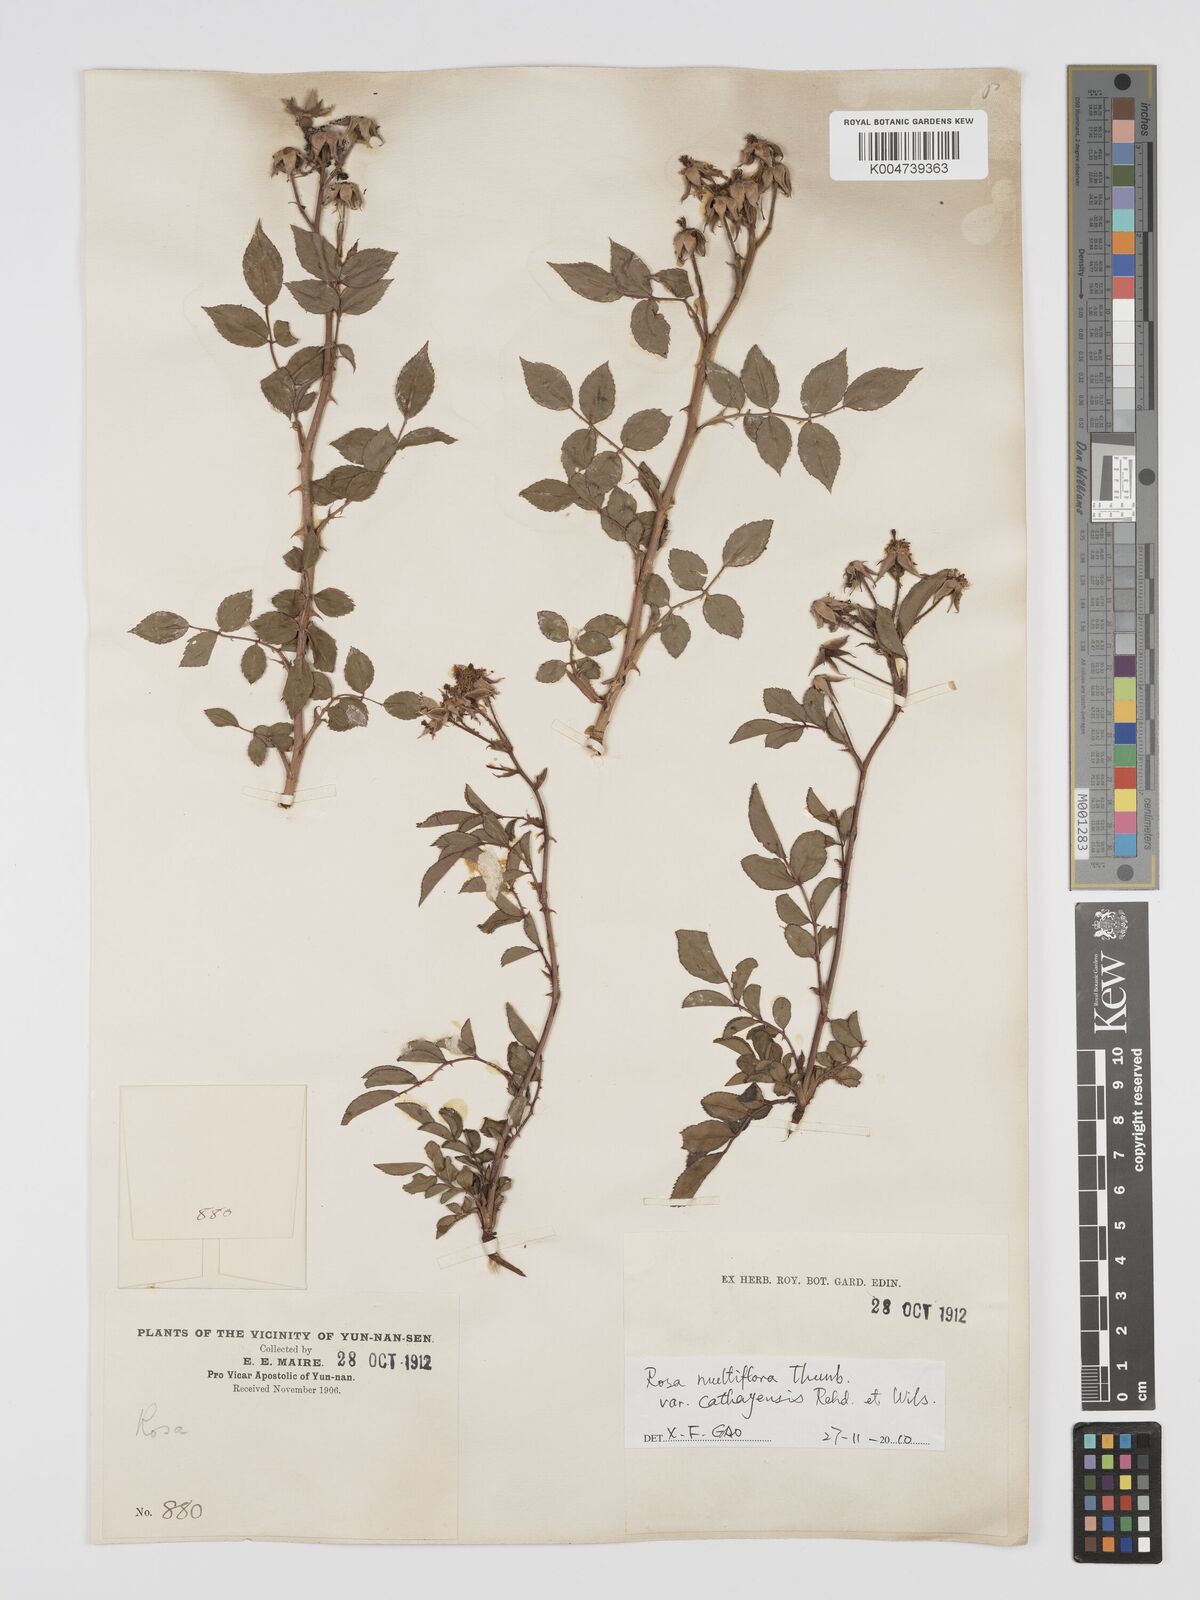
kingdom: Plantae
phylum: Tracheophyta
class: Magnoliopsida
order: Rosales
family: Rosaceae
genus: Rosa
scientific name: Rosa
